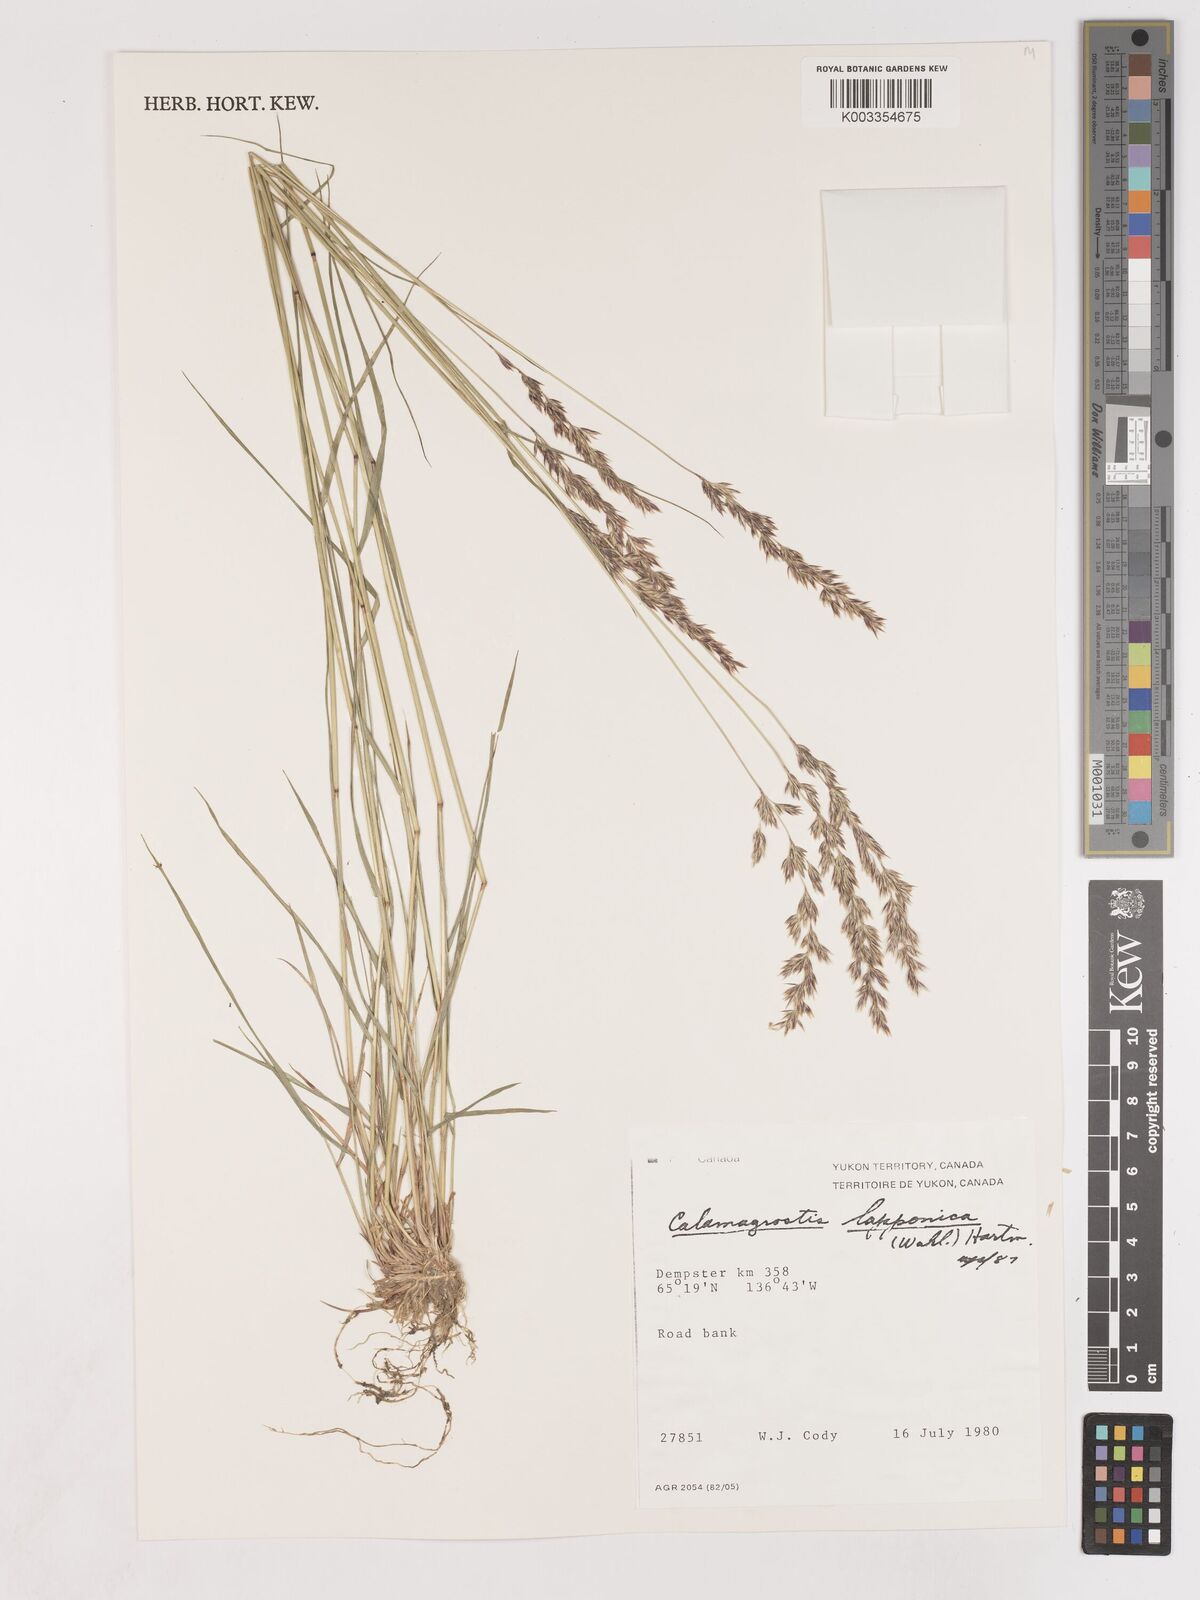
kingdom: Plantae
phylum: Tracheophyta
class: Liliopsida
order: Poales
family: Poaceae
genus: Calamagrostis
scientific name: Calamagrostis lapponica
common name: Lapland reedgrass
